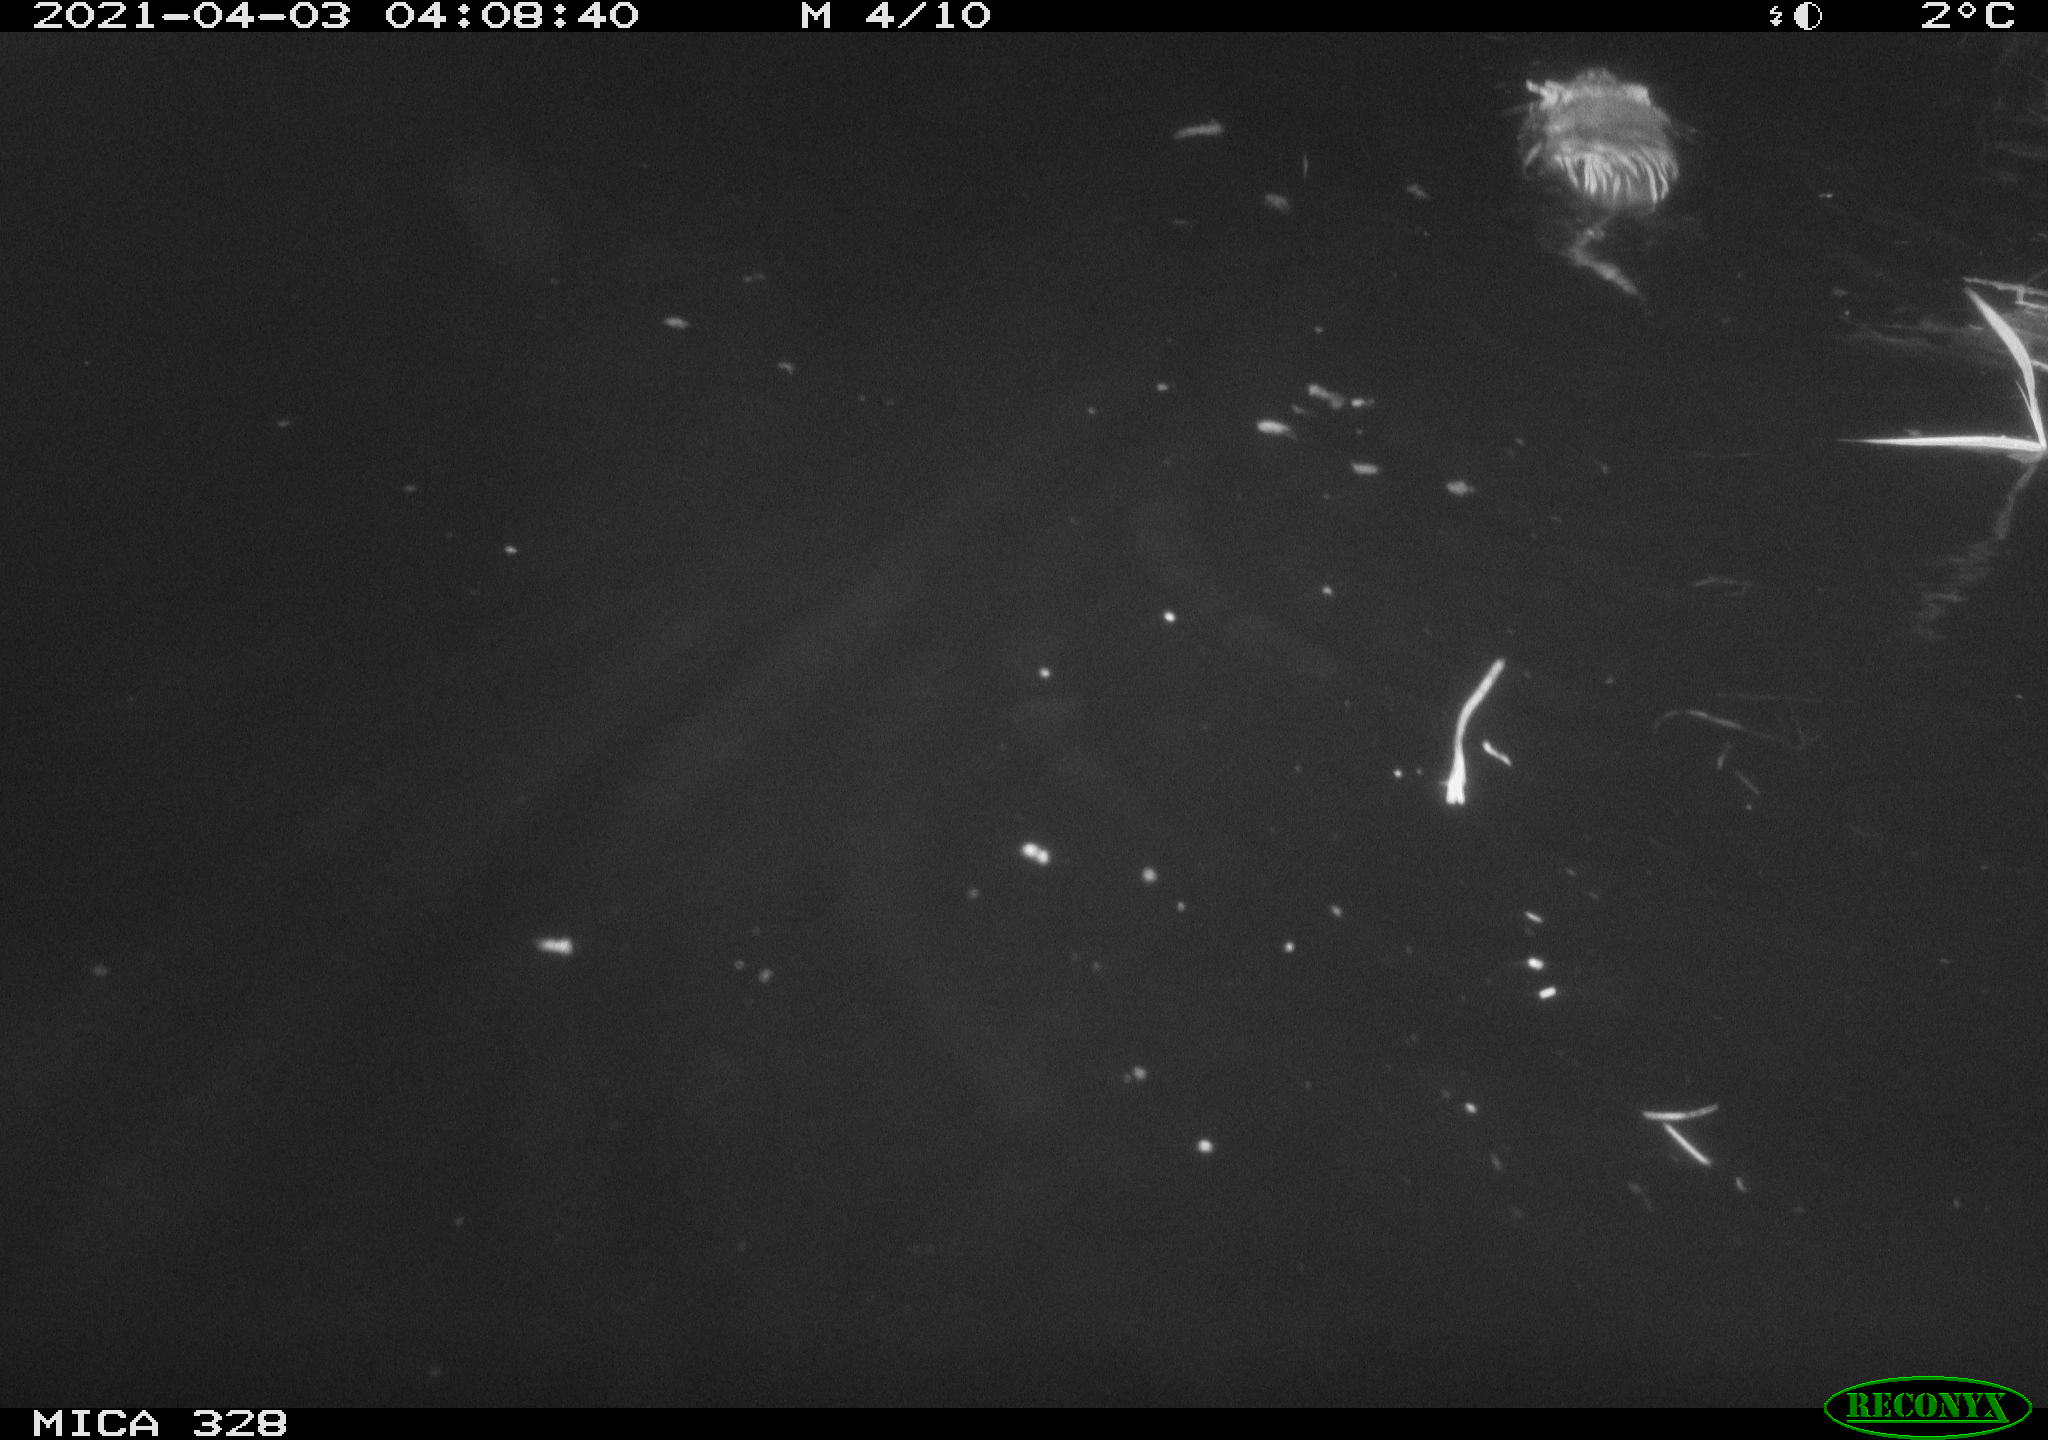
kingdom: Animalia
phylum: Chordata
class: Mammalia
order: Rodentia
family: Cricetidae
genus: Ondatra
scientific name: Ondatra zibethicus
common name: Muskrat
